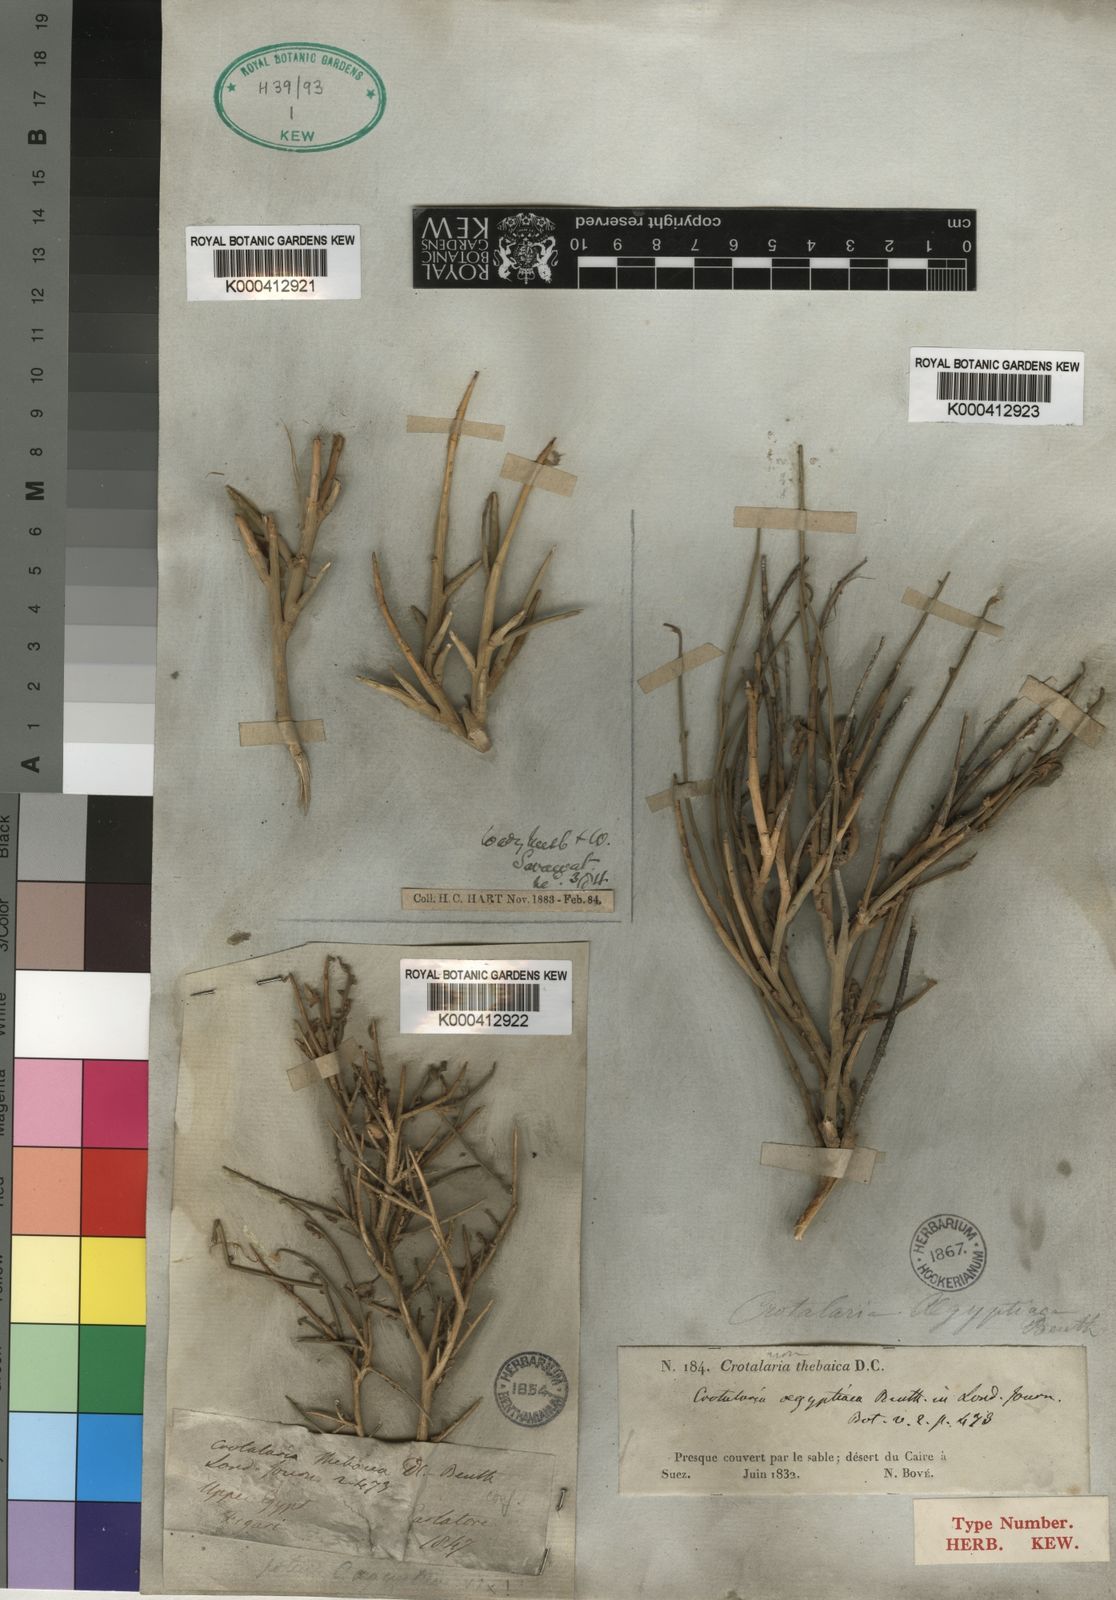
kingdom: Plantae
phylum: Tracheophyta
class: Magnoliopsida
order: Fabales
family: Fabaceae
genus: Crotalaria
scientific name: Crotalaria aegyptiaca
